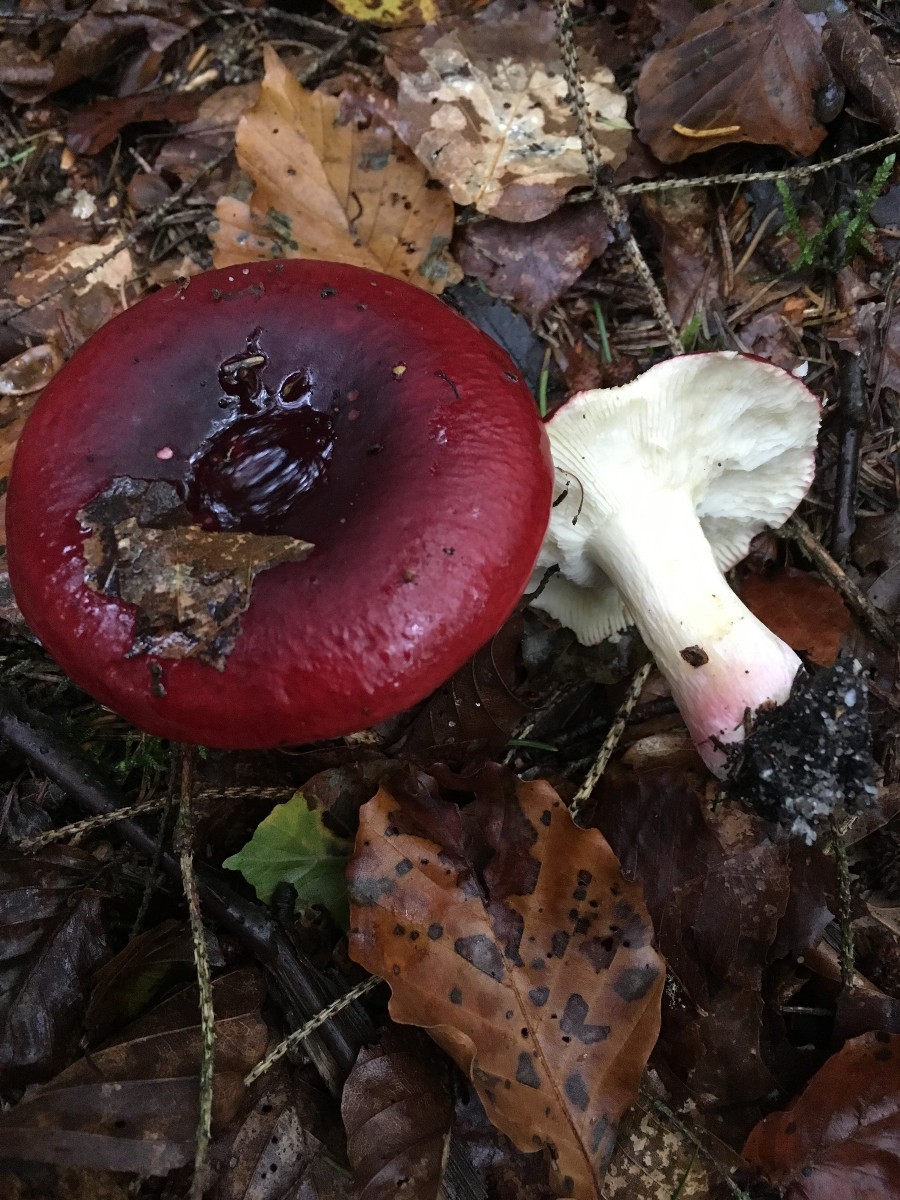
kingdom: Fungi
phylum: Basidiomycota
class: Agaricomycetes
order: Russulales
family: Russulaceae
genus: Russula
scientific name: Russula
